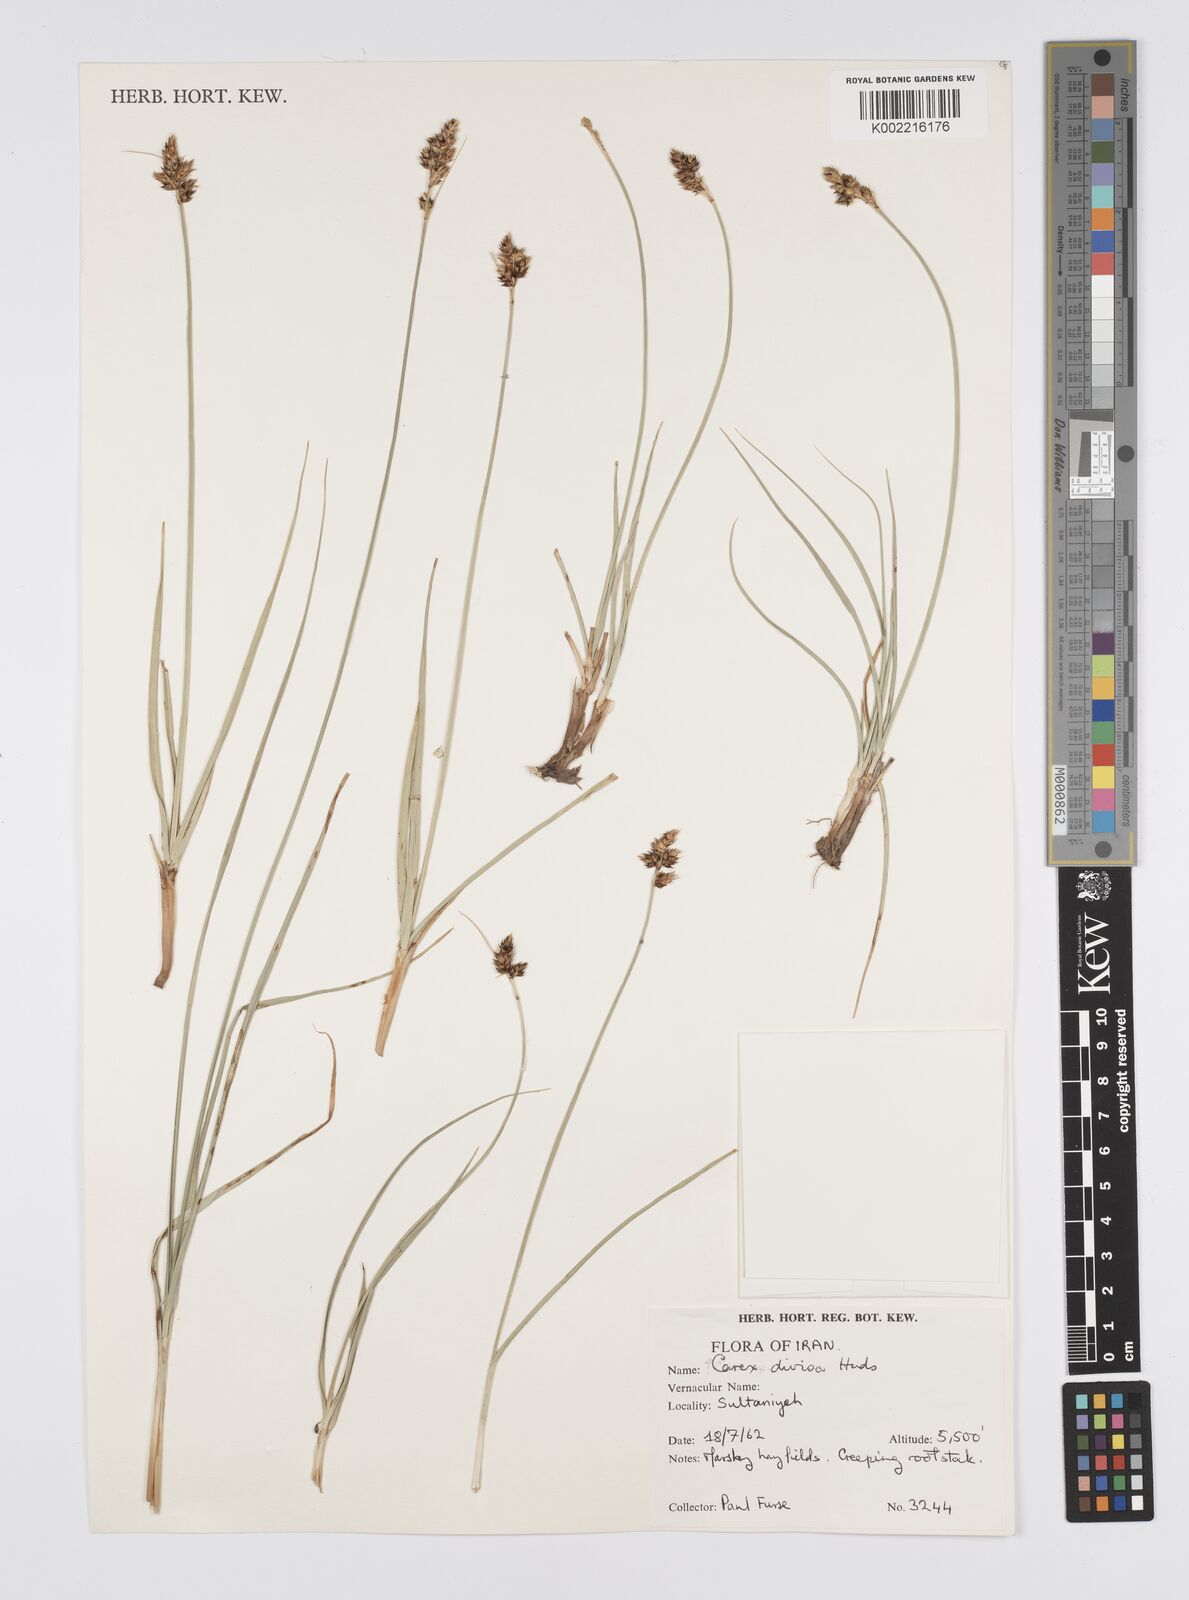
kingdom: Plantae
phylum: Tracheophyta
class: Liliopsida
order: Poales
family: Cyperaceae
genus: Carex
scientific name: Carex divisa
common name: Divided sedge
